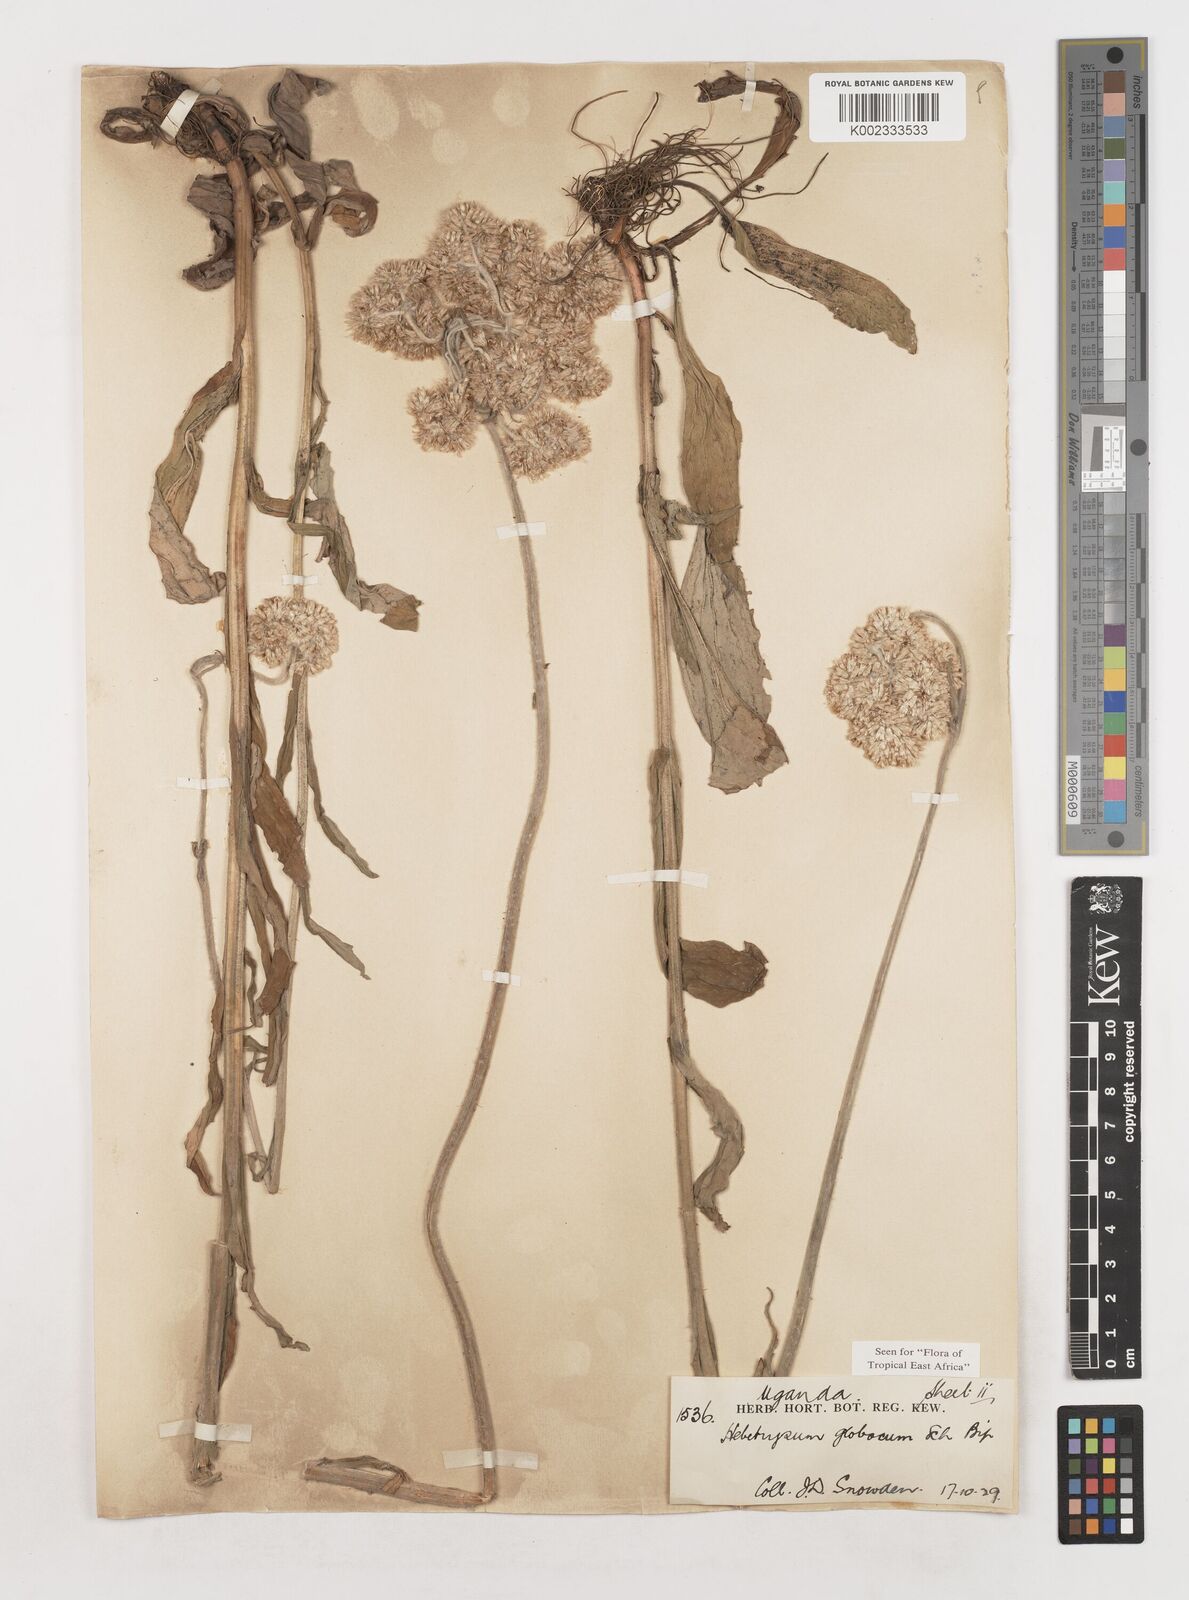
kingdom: Plantae
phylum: Tracheophyta
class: Magnoliopsida
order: Asterales
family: Asteraceae
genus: Helichrysum
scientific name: Helichrysum globosum
